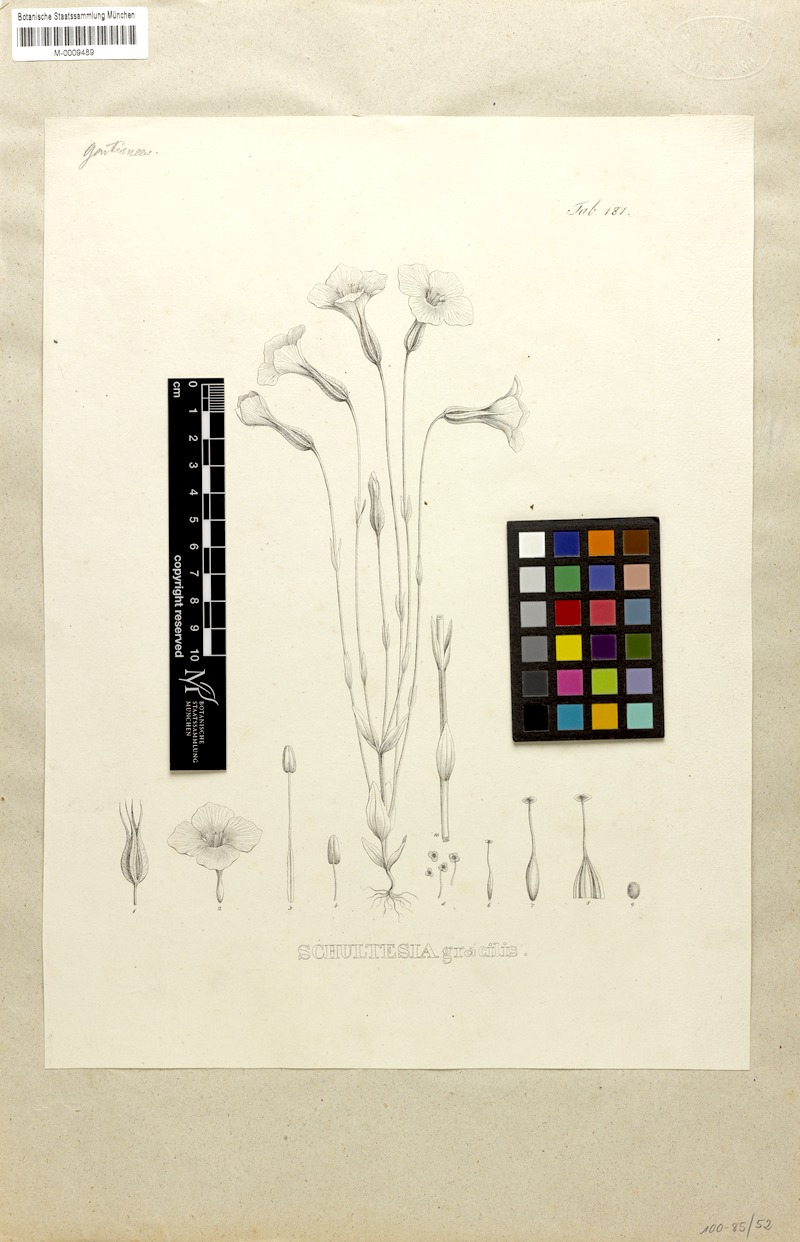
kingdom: Plantae
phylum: Tracheophyta
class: Magnoliopsida
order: Gentianales
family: Gentianaceae
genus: Schultesia
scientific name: Schultesia gracilis
